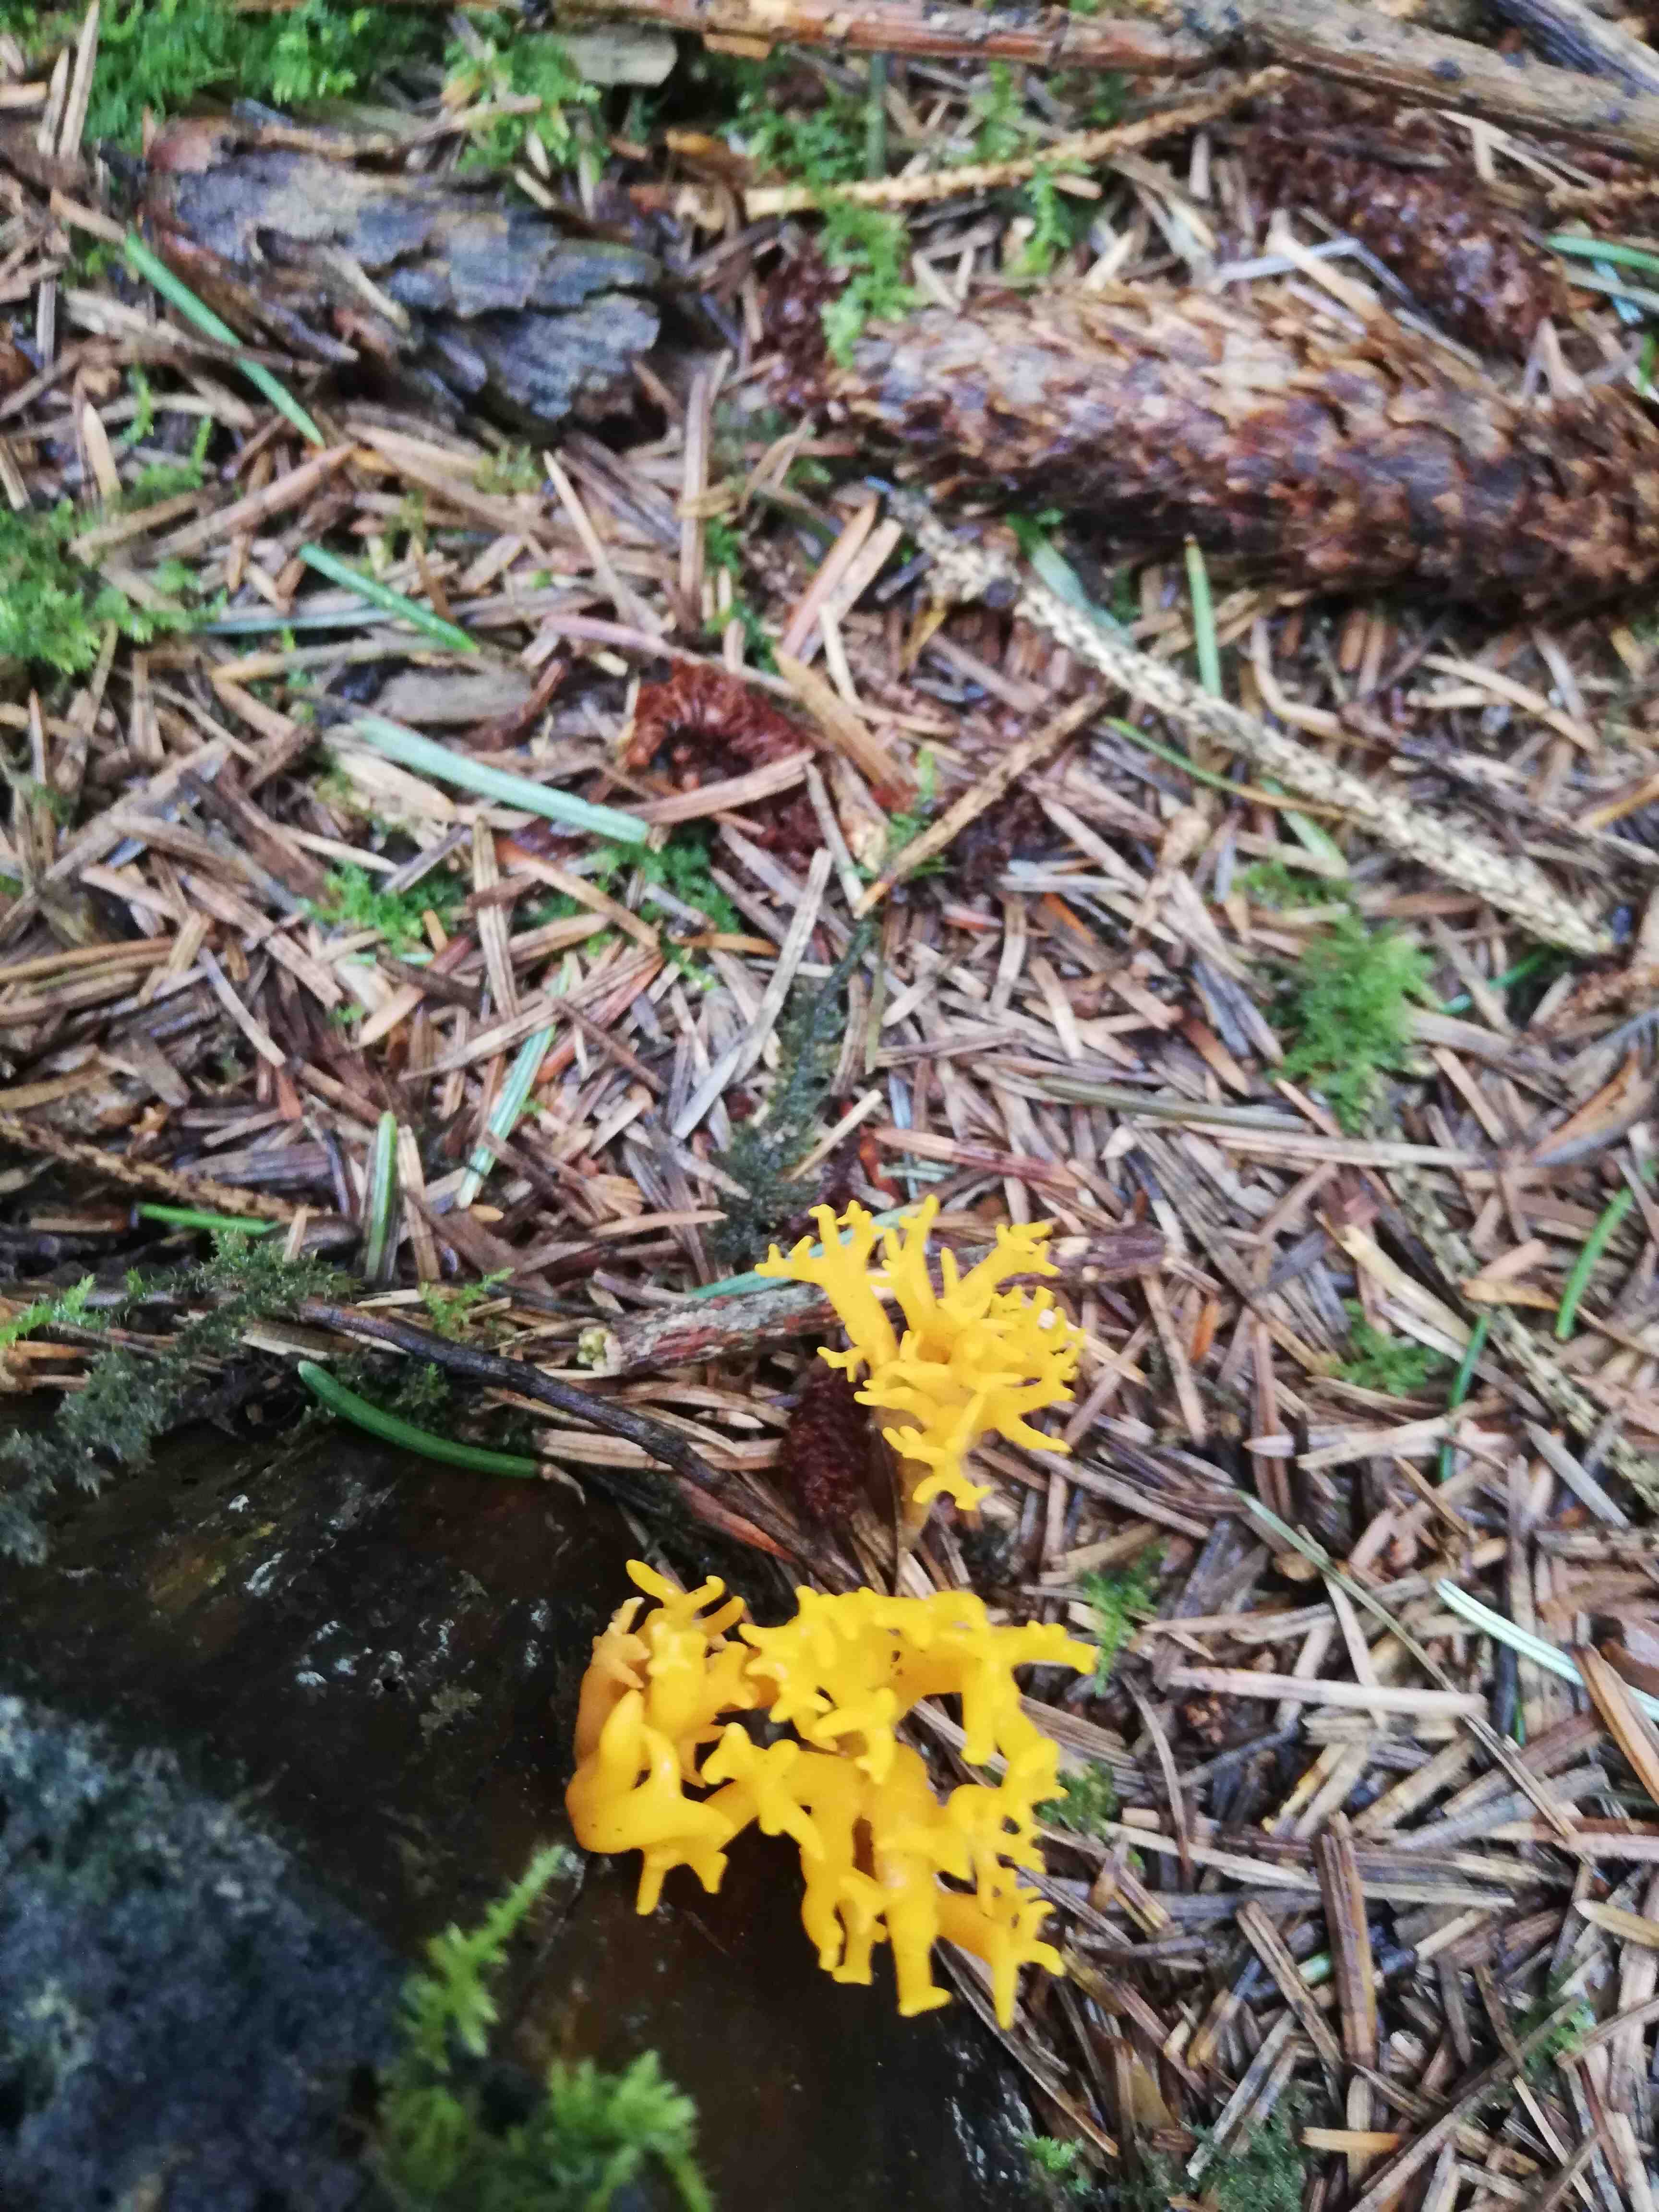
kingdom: Fungi
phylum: Basidiomycota
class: Dacrymycetes
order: Dacrymycetales
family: Dacrymycetaceae
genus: Calocera
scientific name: Calocera viscosa
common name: almindelig guldgaffel
